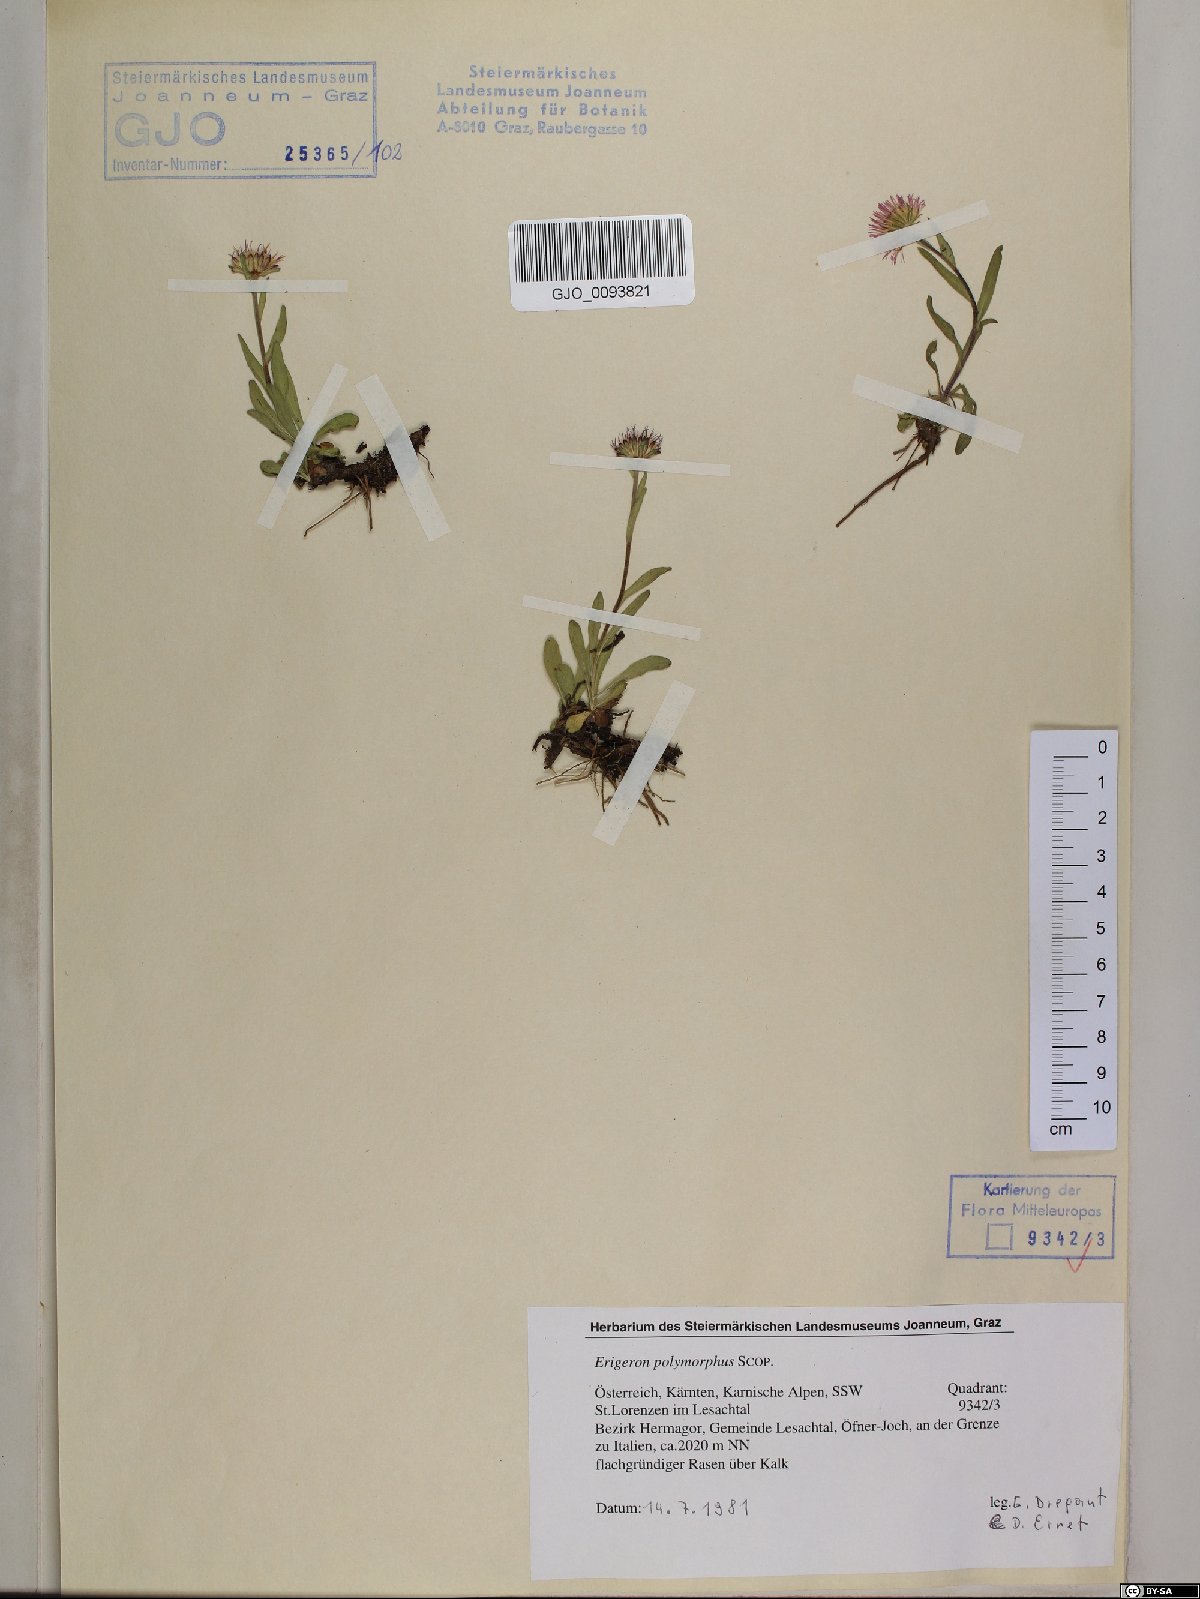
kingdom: Plantae
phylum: Tracheophyta
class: Magnoliopsida
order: Asterales
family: Asteraceae
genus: Erigeron
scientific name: Erigeron alpinus
